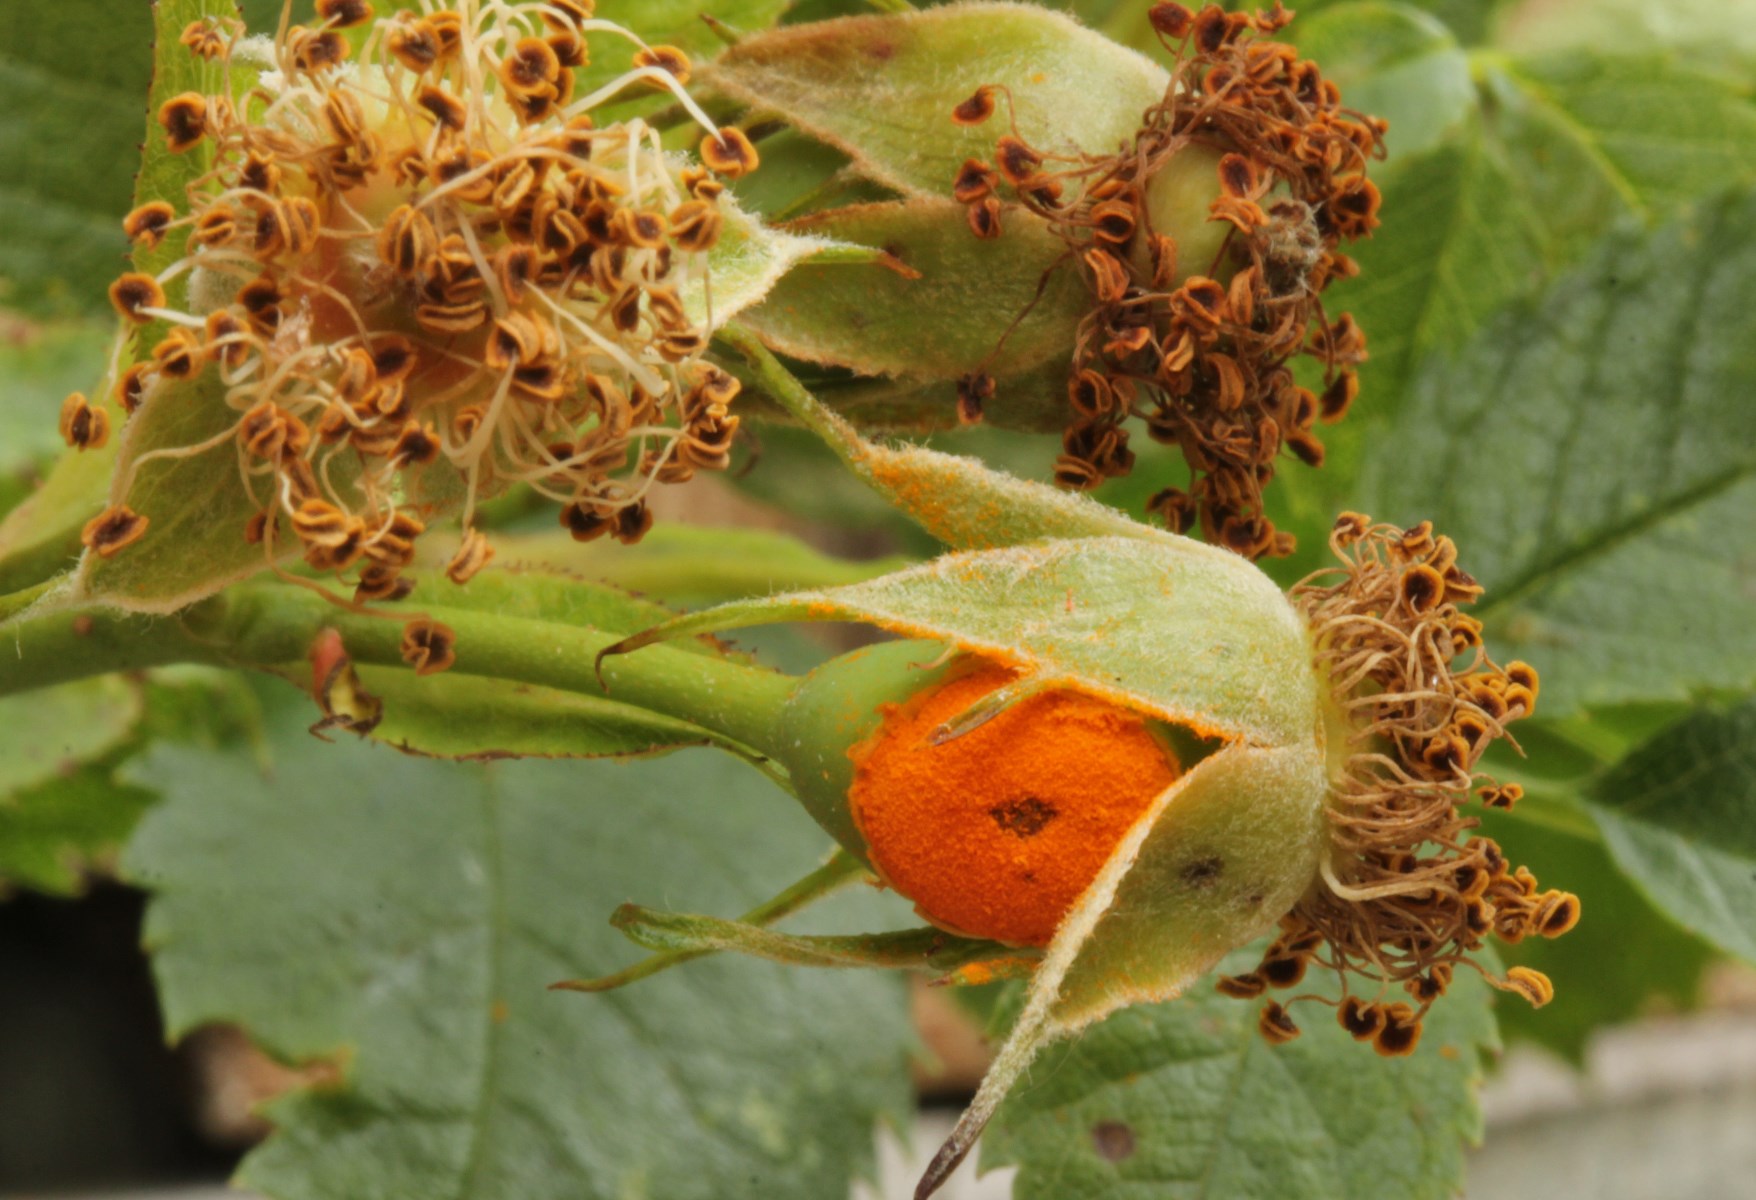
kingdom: Fungi
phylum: Basidiomycota
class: Pucciniomycetes
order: Pucciniales
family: Phragmidiaceae
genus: Phragmidium
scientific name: Phragmidium
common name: flercellerust
